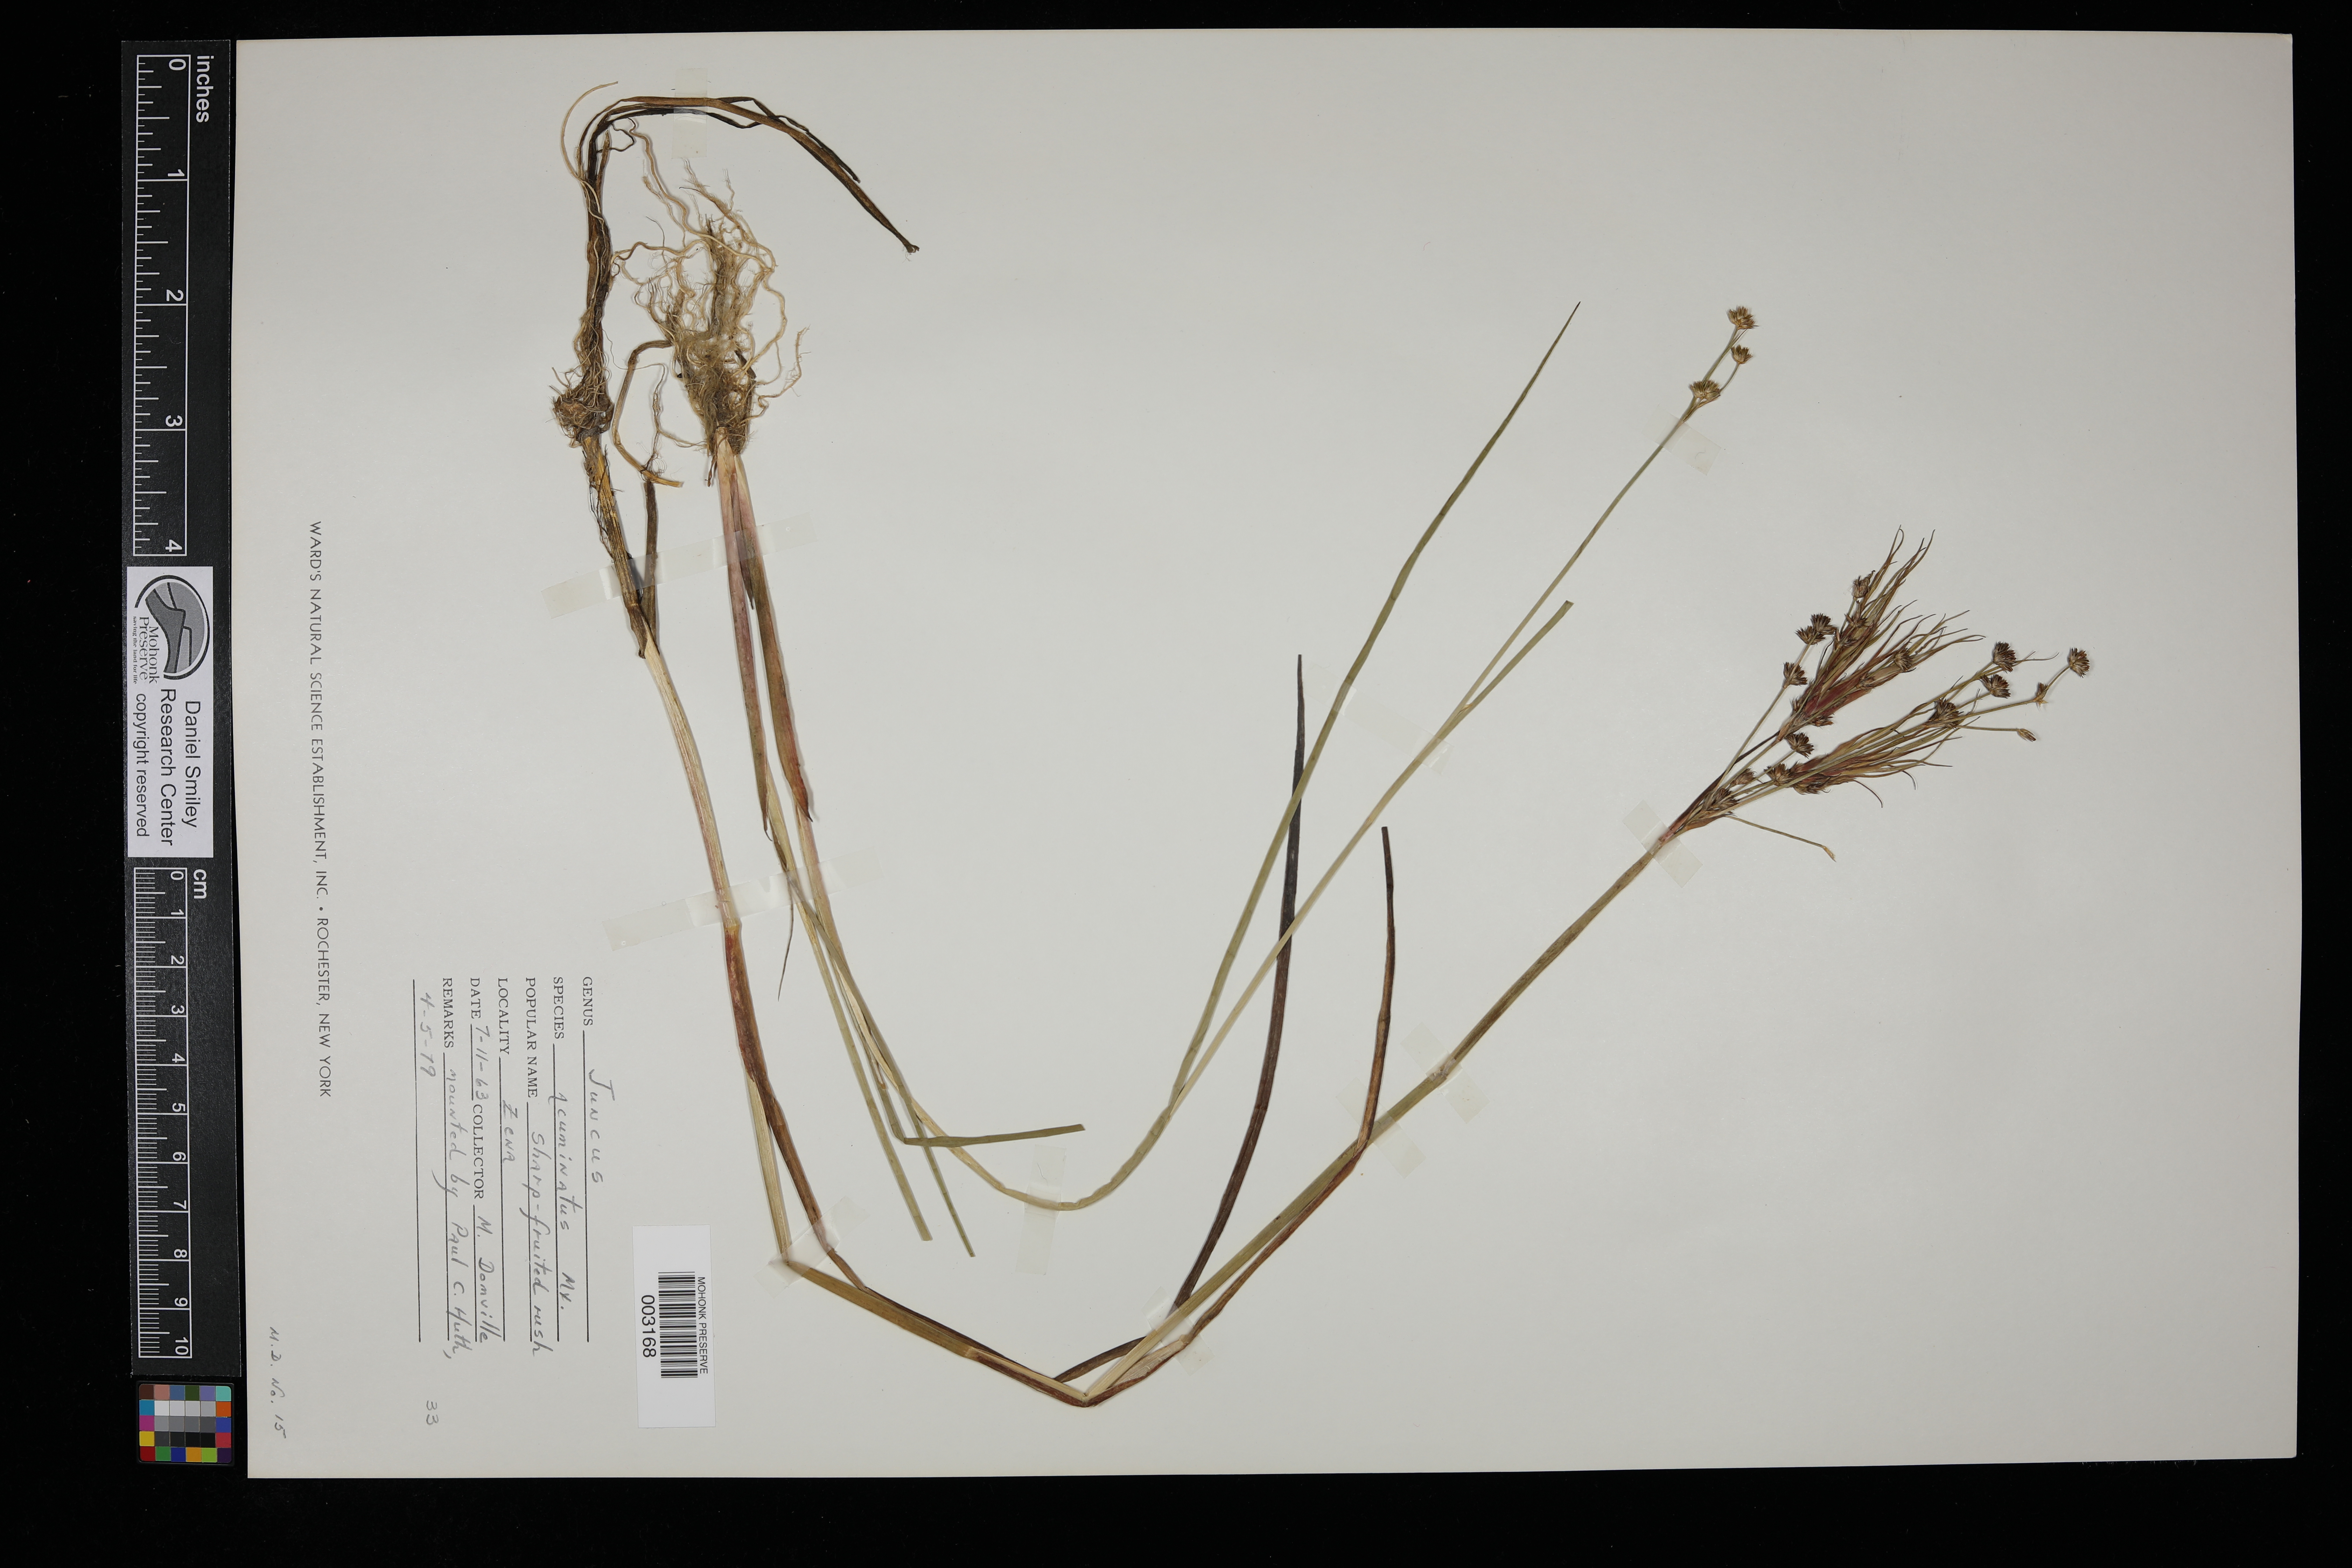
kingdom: Plantae
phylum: Tracheophyta
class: Liliopsida
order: Poales
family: Juncaceae
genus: Juncus
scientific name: Juncus acuminatus
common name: Knotty-leaved rush
